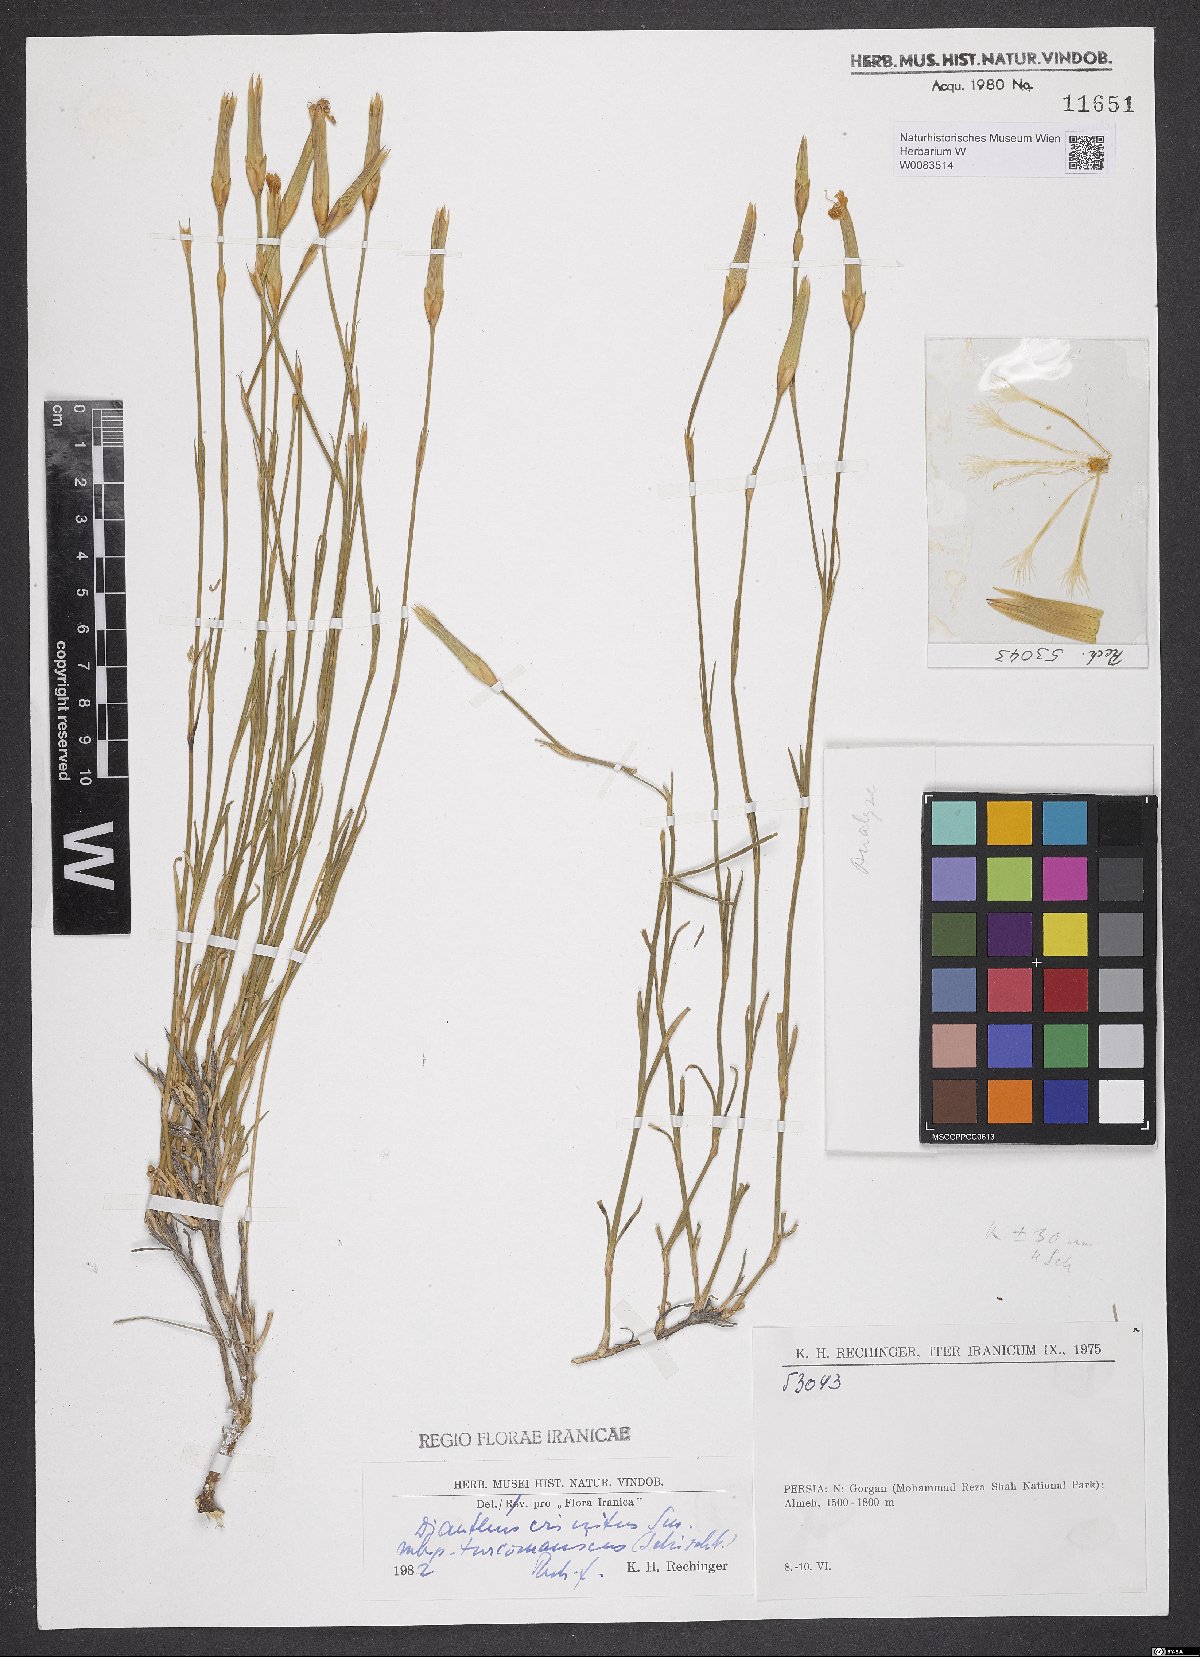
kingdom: Plantae
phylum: Tracheophyta
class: Magnoliopsida
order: Caryophyllales
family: Caryophyllaceae
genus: Dianthus
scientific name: Dianthus turkestanicus
